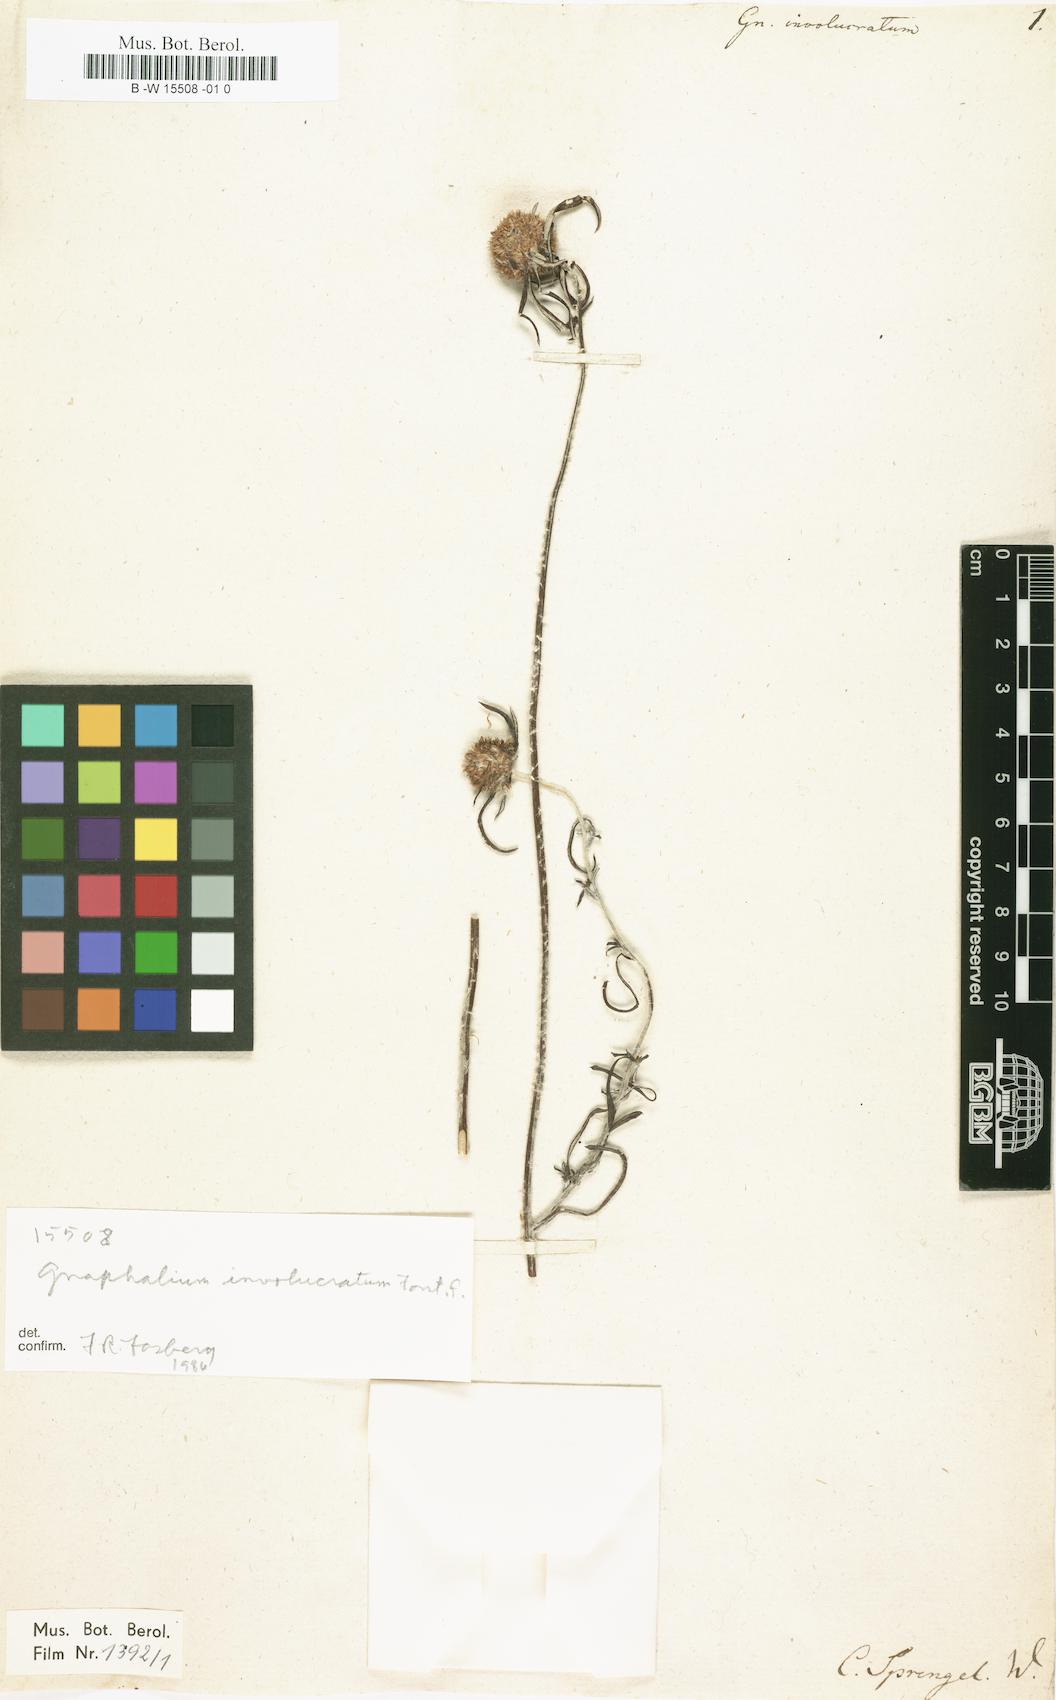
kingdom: Plantae
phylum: Tracheophyta
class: Magnoliopsida
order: Asterales
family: Asteraceae
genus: Euchiton
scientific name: Euchiton involucratus
